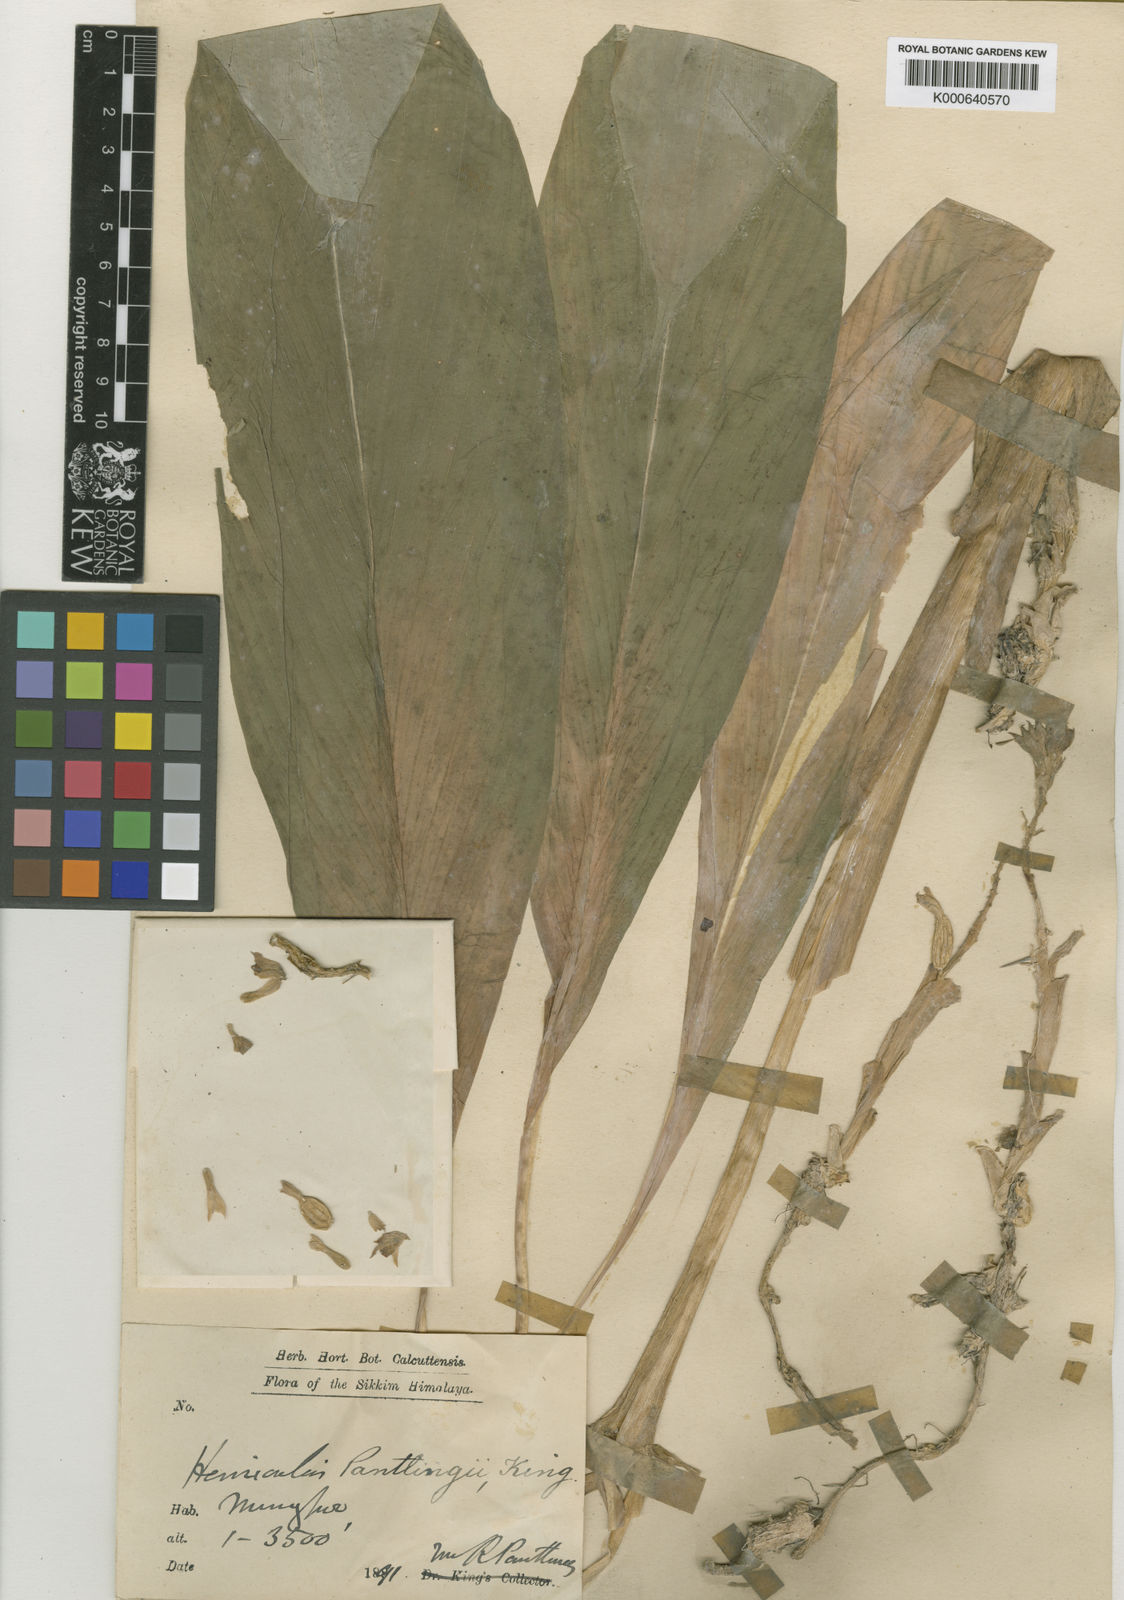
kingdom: Plantae
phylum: Tracheophyta
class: Liliopsida
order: Zingiberales
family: Zingiberaceae
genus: Hemiorchis
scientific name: Hemiorchis pantlingii
